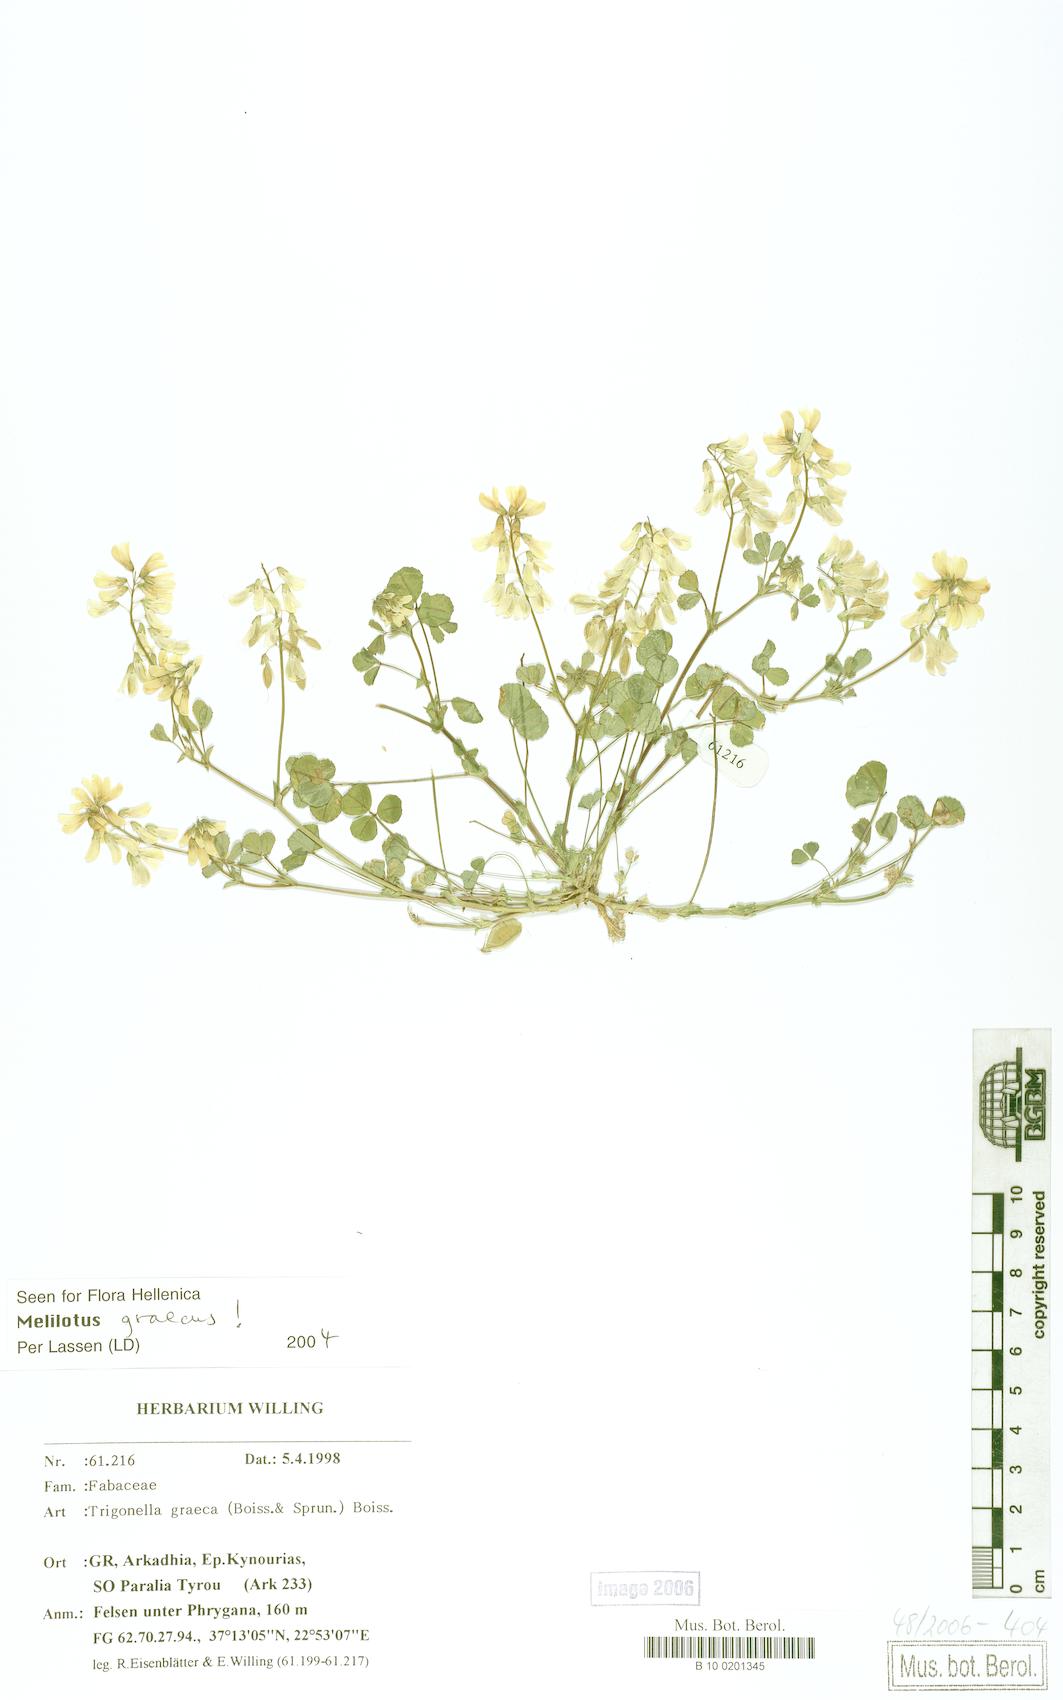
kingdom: Plantae
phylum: Tracheophyta
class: Magnoliopsida
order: Fabales
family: Fabaceae
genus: Trigonella
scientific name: Trigonella graeca
